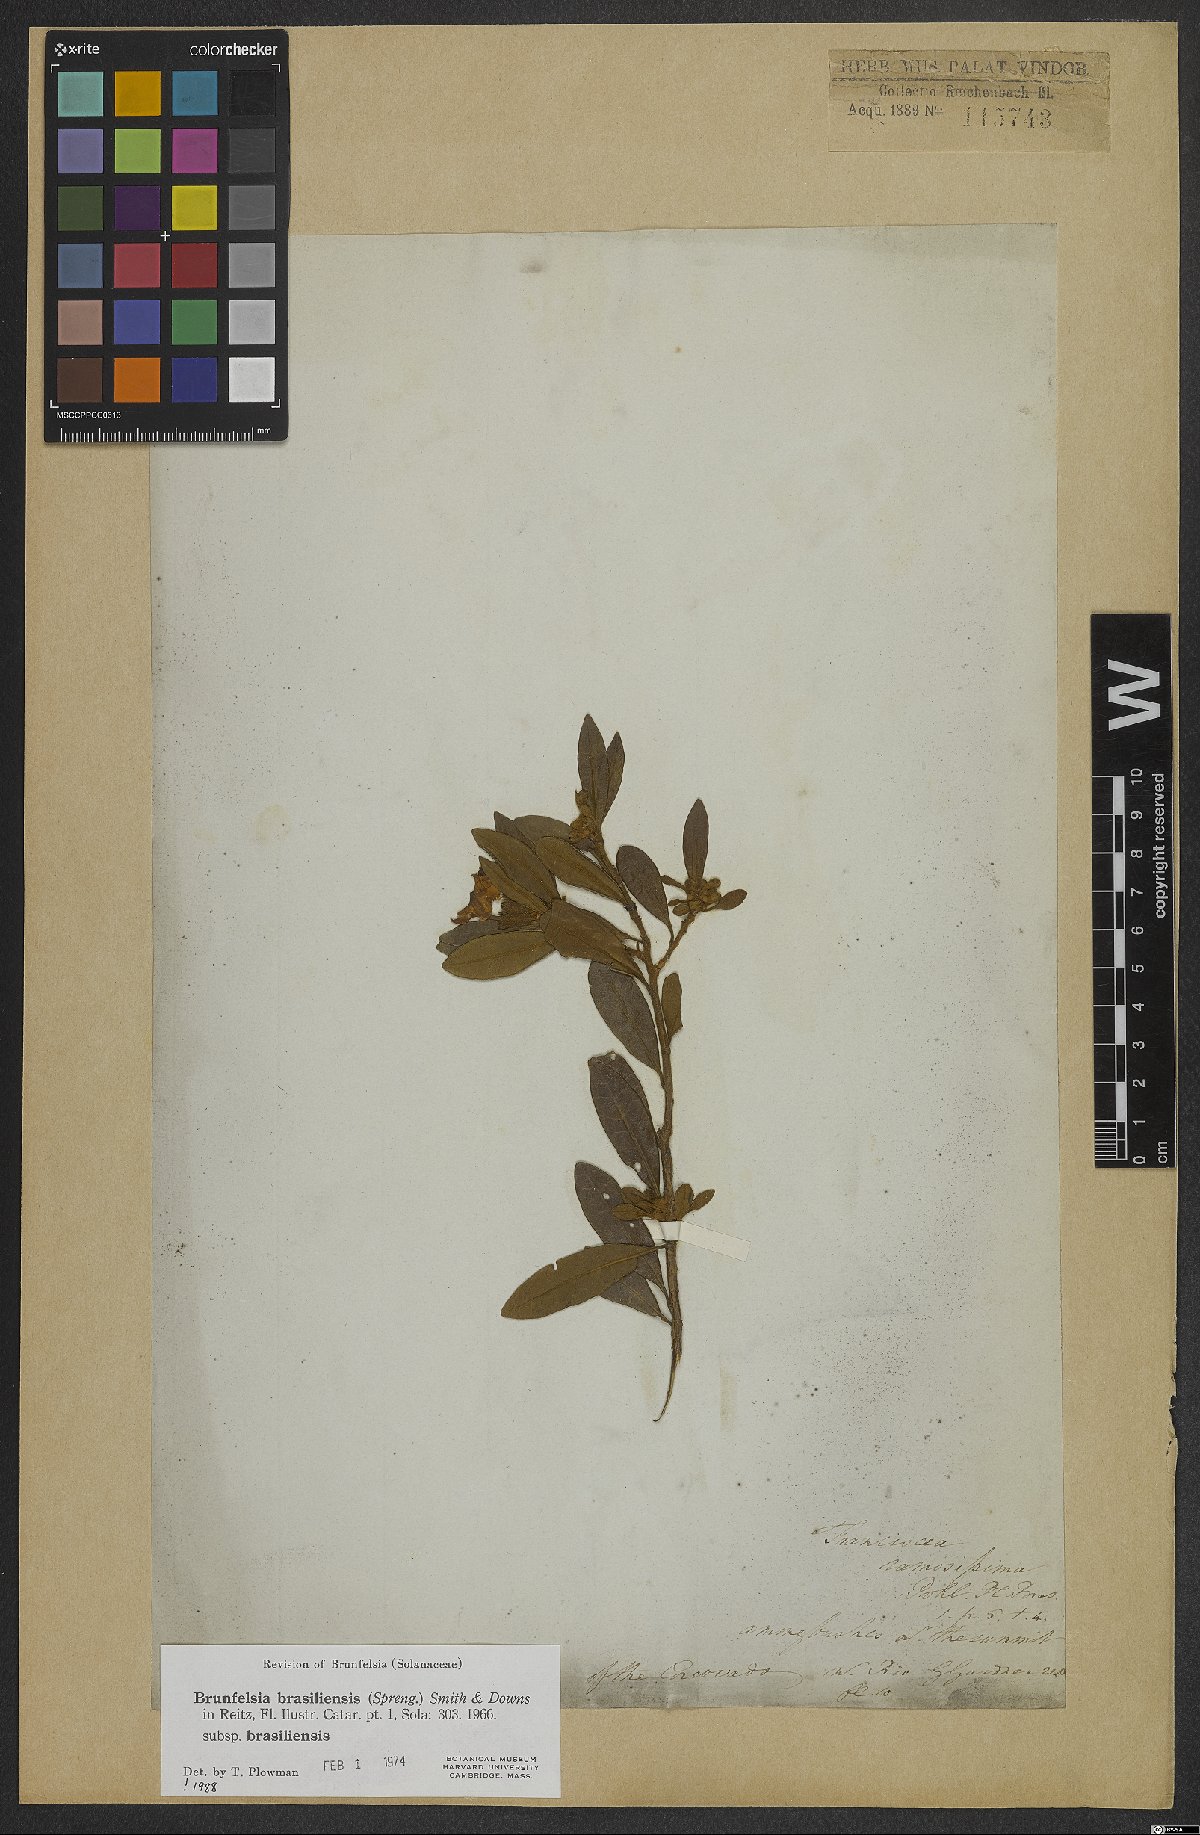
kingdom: Plantae
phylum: Tracheophyta
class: Magnoliopsida
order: Solanales
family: Solanaceae
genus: Brunfelsia
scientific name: Brunfelsia brasiliensis
